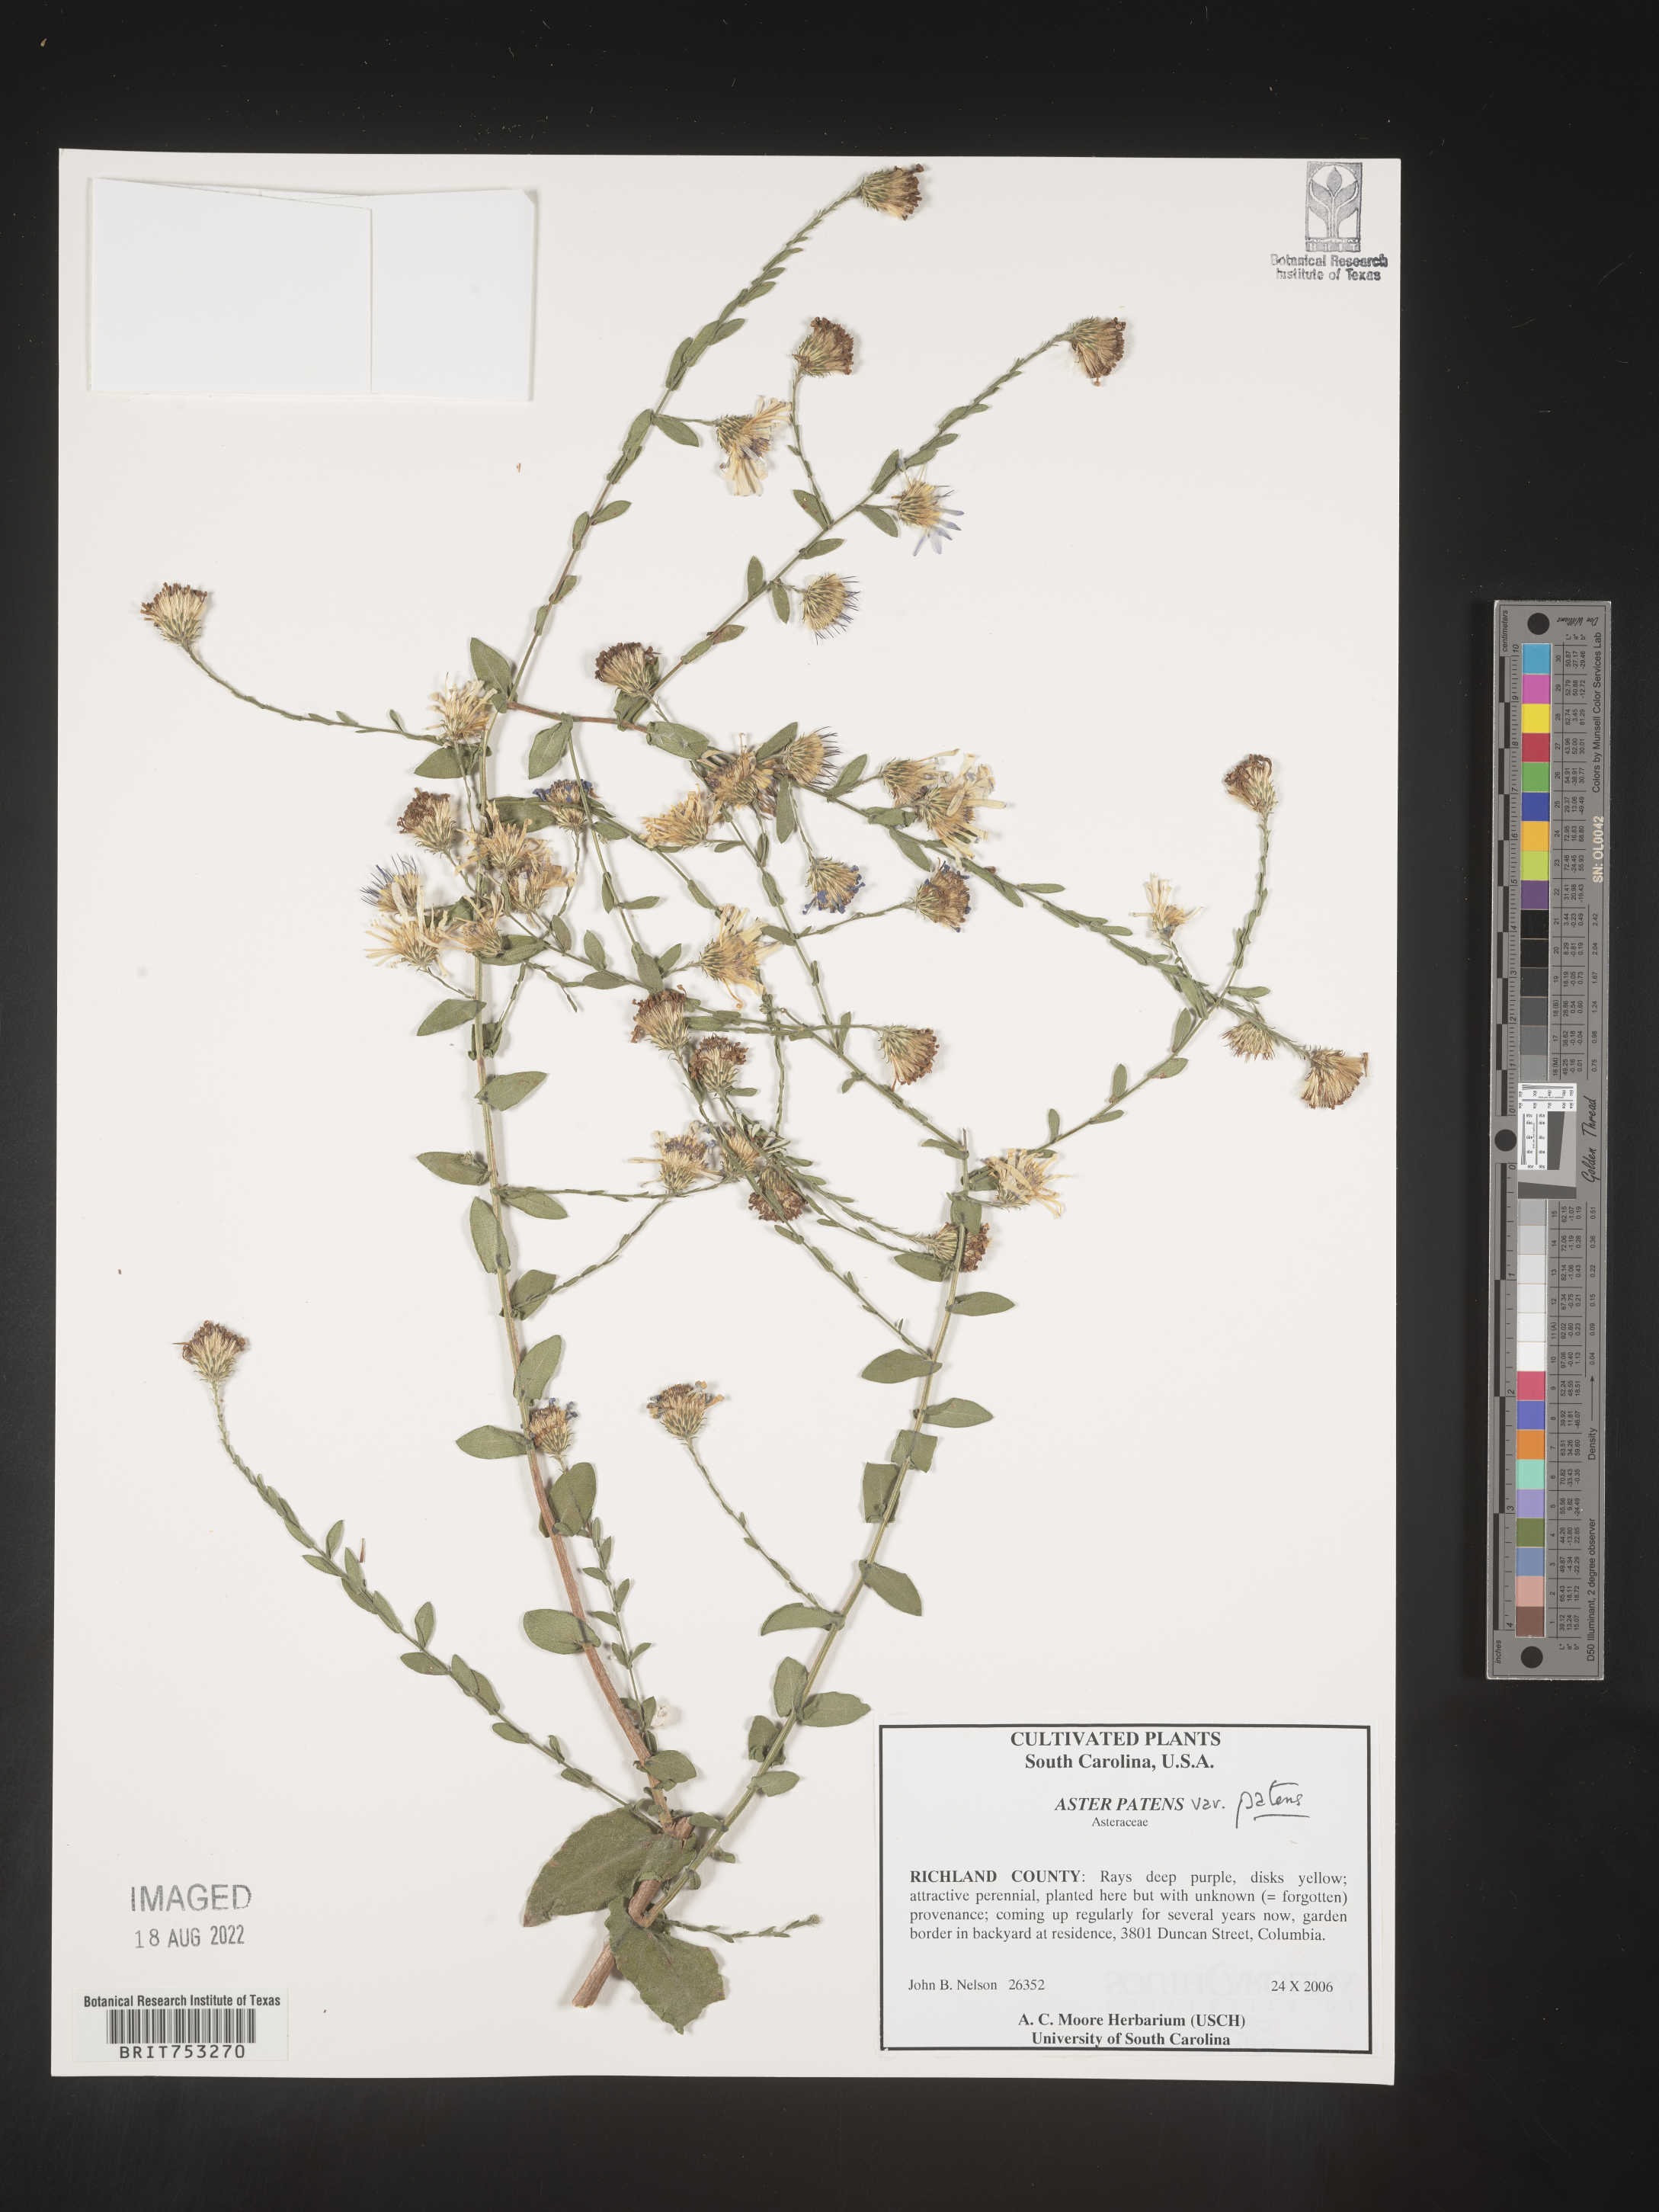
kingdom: Plantae
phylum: Tracheophyta
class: Magnoliopsida
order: Asterales
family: Asteraceae
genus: Symphyotrichum
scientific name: Symphyotrichum patens
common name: Late purple aster
